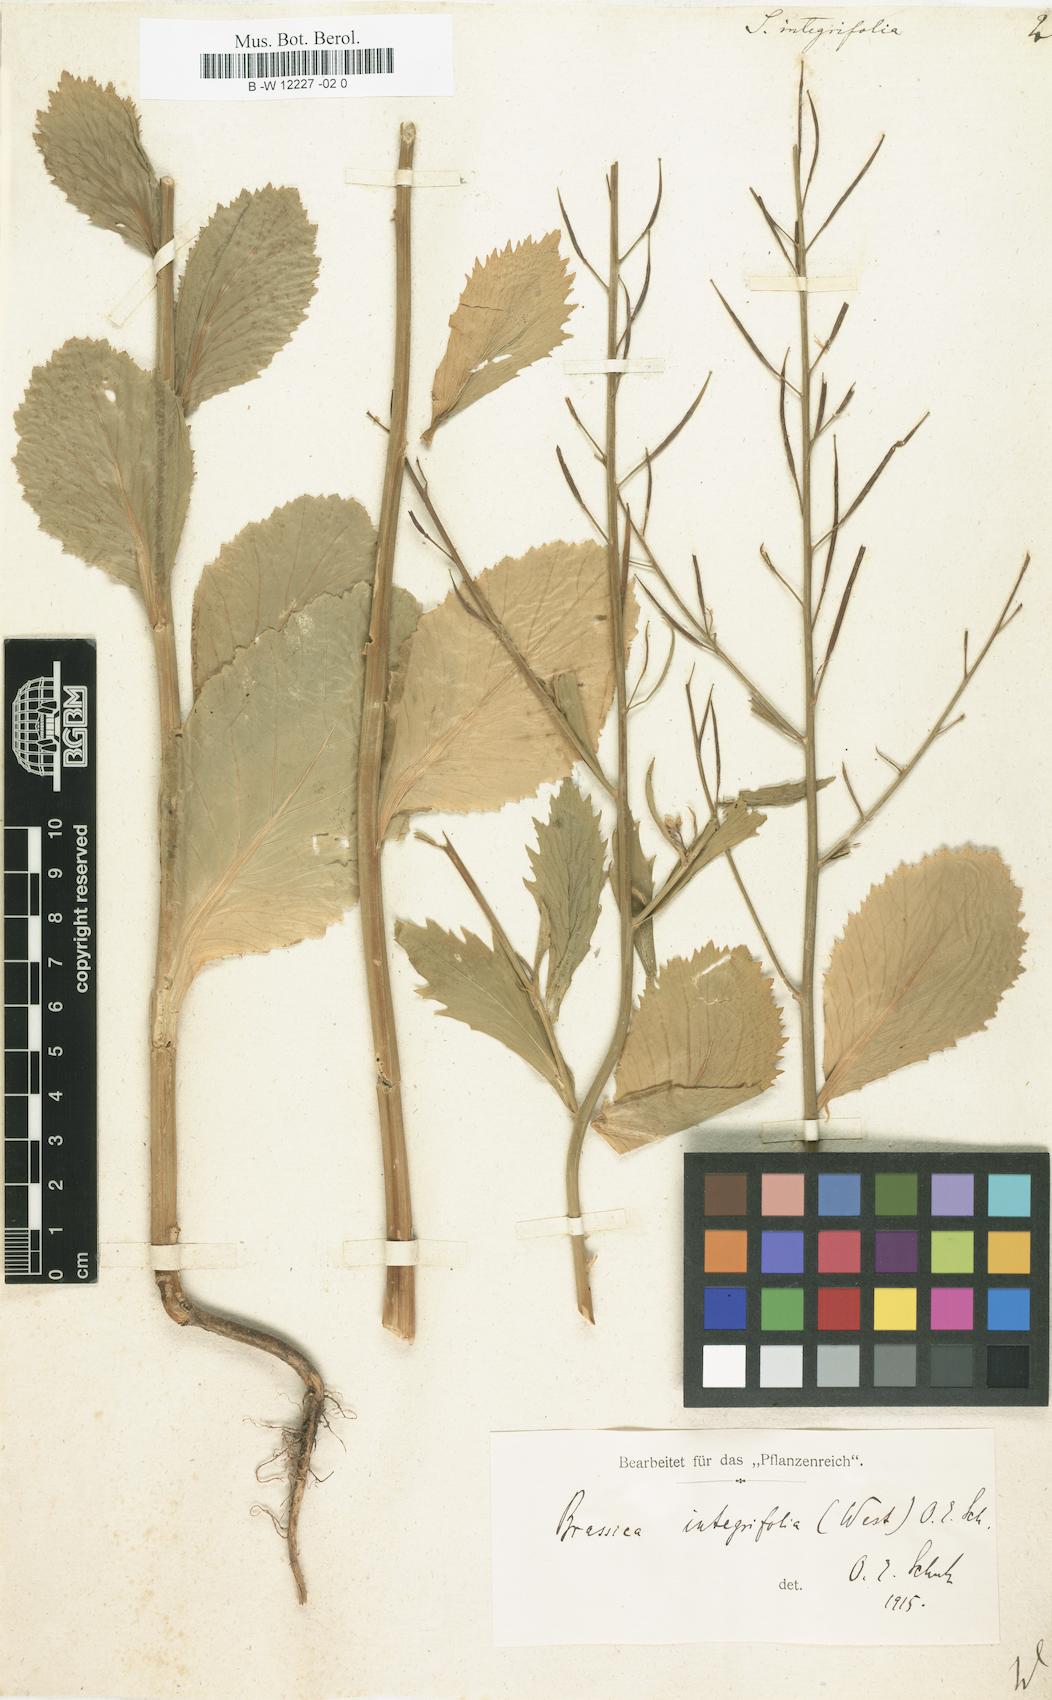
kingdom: Plantae
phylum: Tracheophyta
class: Magnoliopsida
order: Brassicales
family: Brassicaceae
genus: Sinapis
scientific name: Sinapis integrifolia
